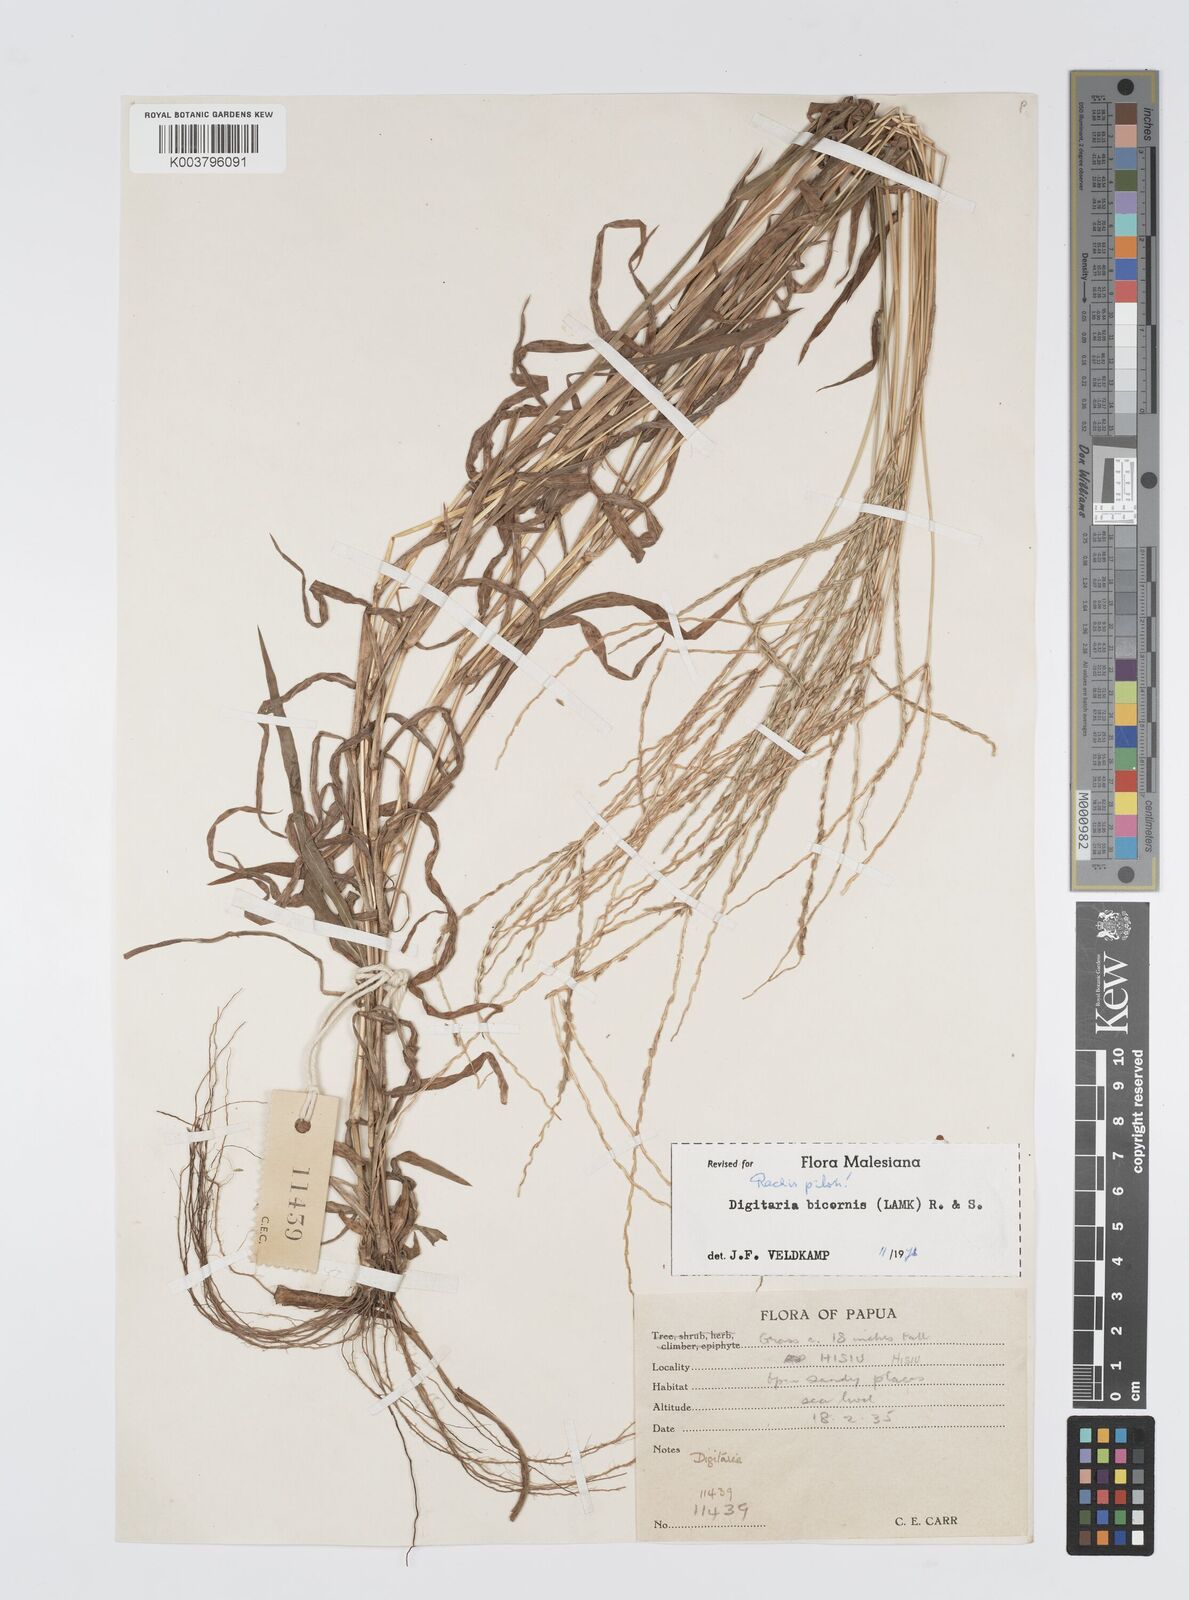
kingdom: Plantae
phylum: Tracheophyta
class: Liliopsida
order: Poales
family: Poaceae
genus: Digitaria
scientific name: Digitaria ciliaris
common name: Tropical finger-grass
